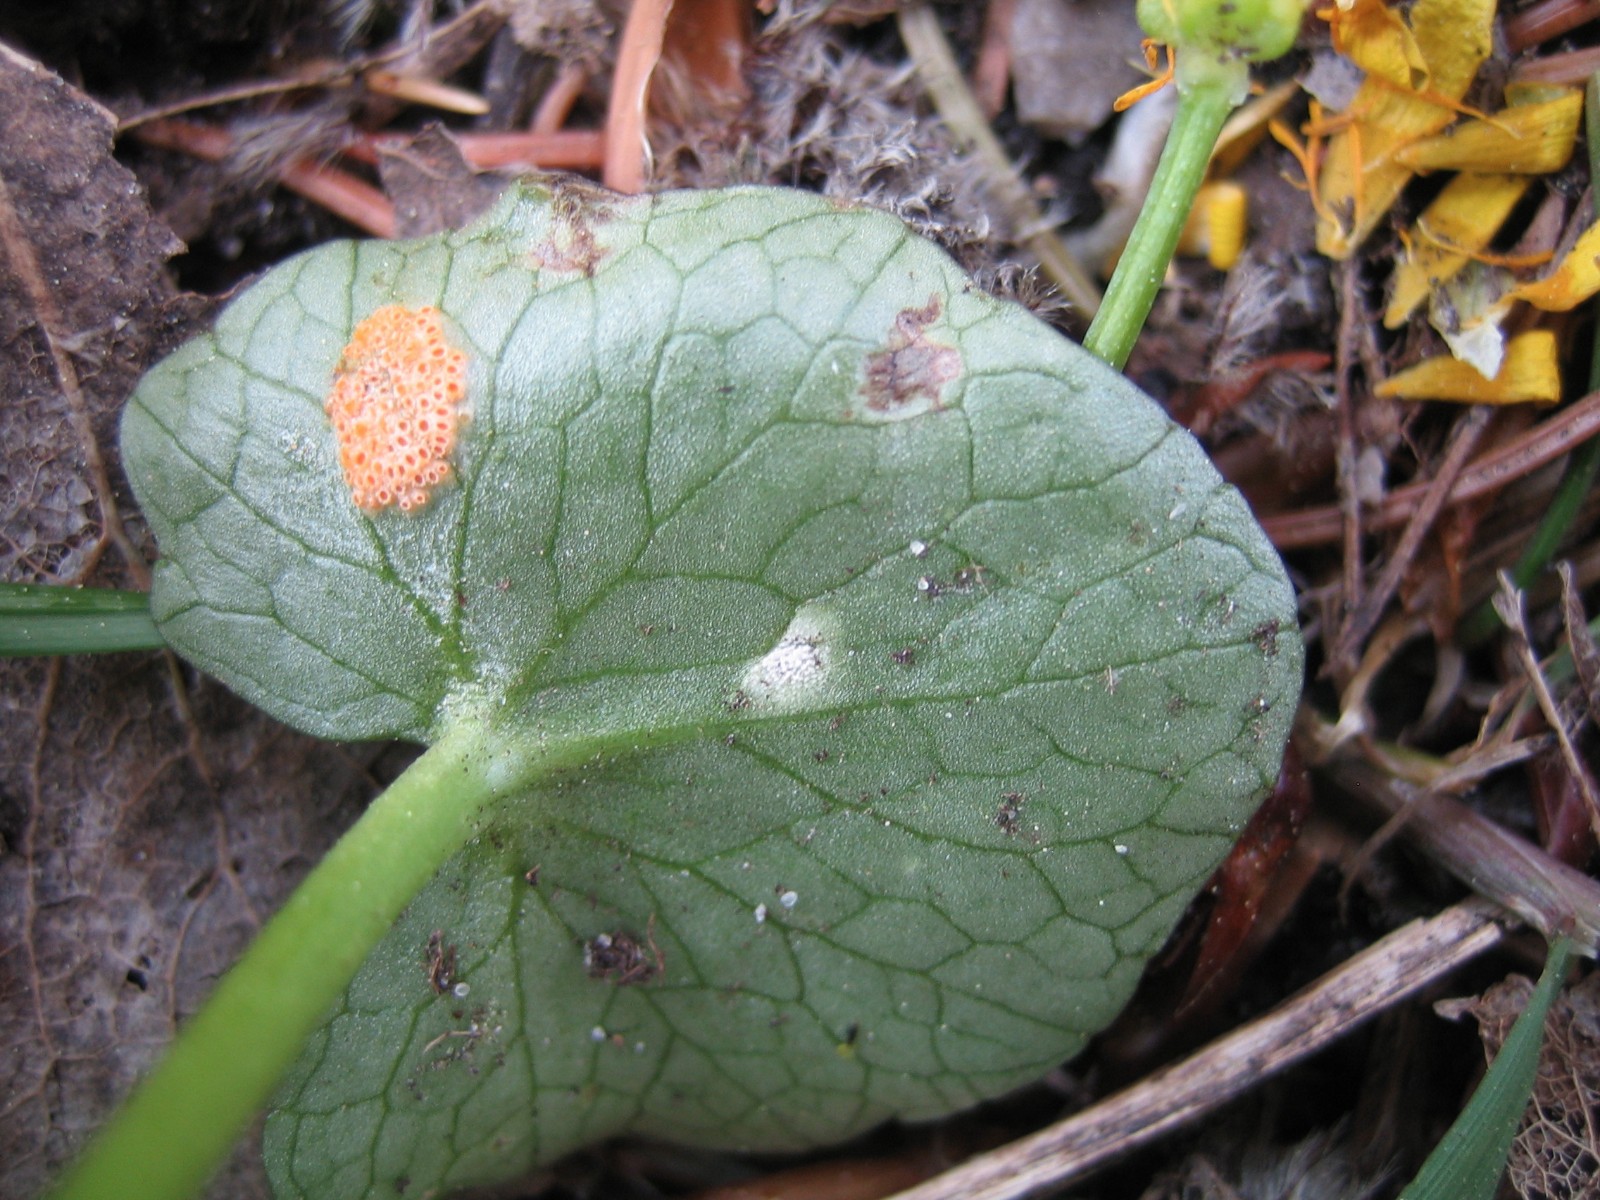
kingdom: Fungi
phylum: Basidiomycota
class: Pucciniomycetes
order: Pucciniales
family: Pucciniaceae
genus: Uromyces
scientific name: Uromyces dactylidis
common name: ranunkel-encellerust
